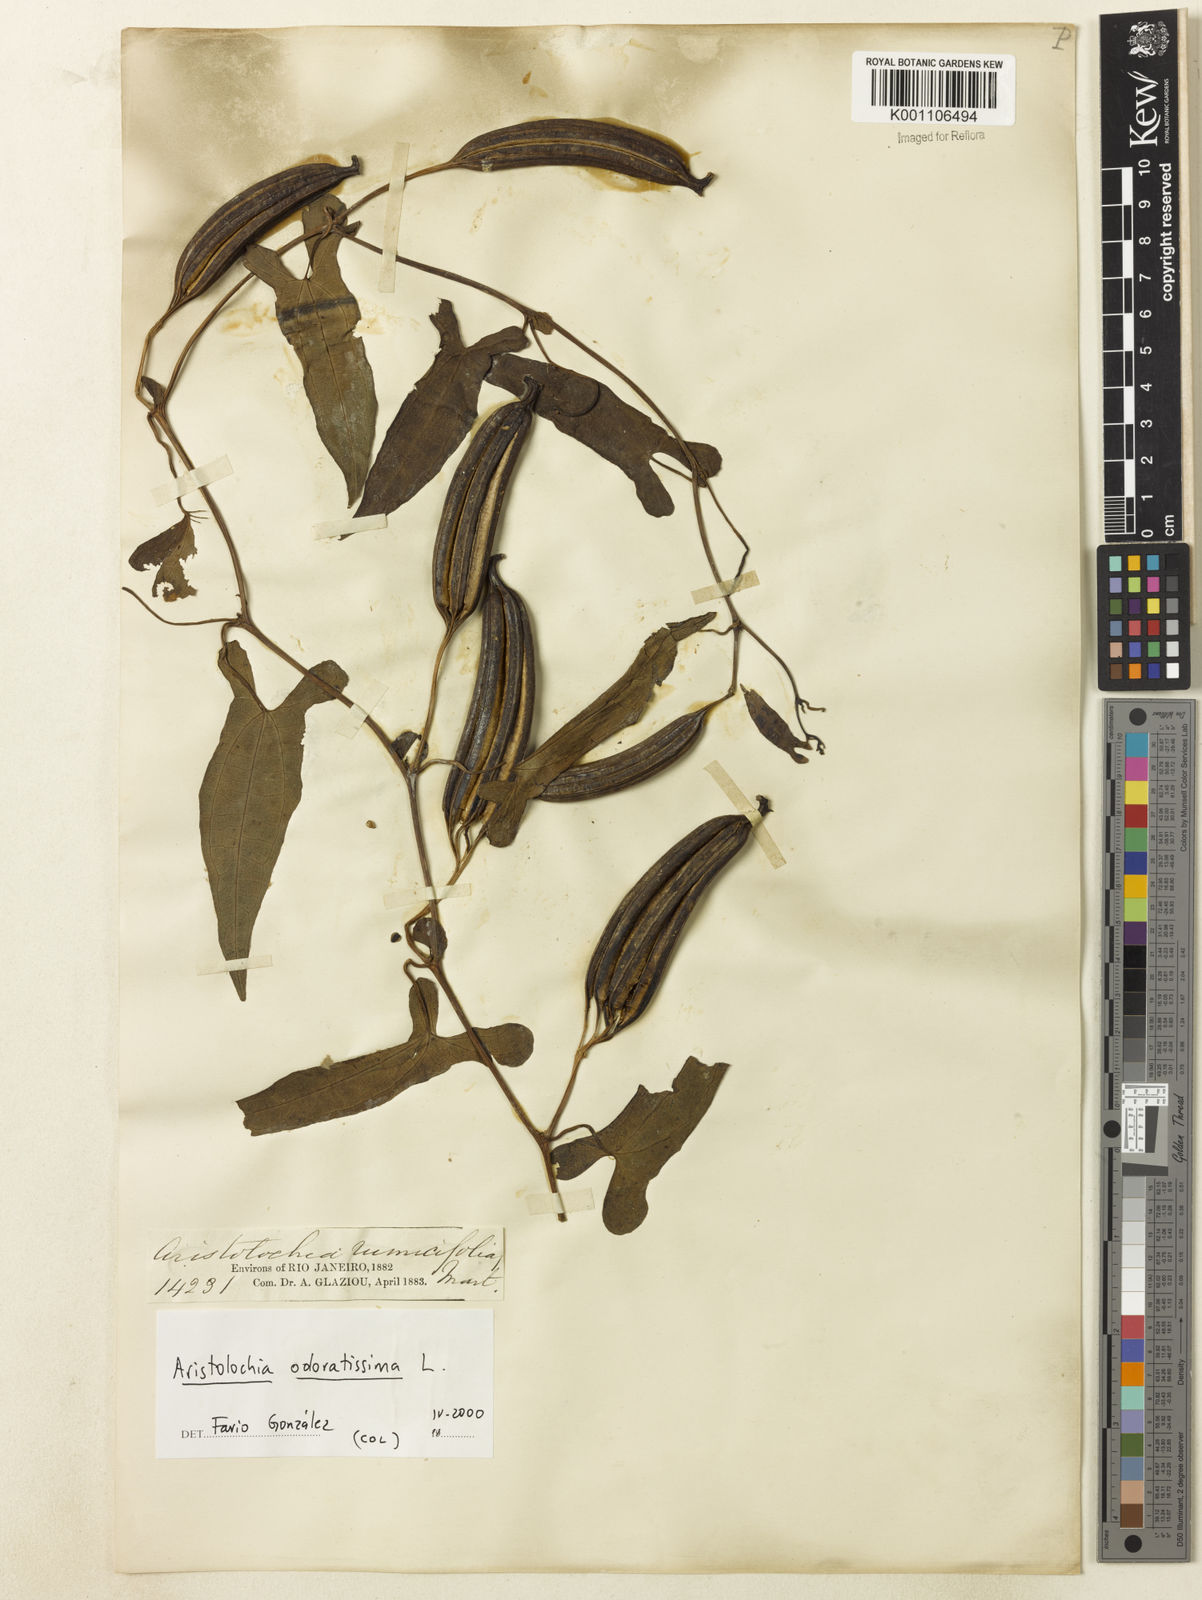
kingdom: Plantae
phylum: Tracheophyta
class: Magnoliopsida
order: Piperales
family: Aristolochiaceae
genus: Aristolochia
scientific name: Aristolochia odoratissima
